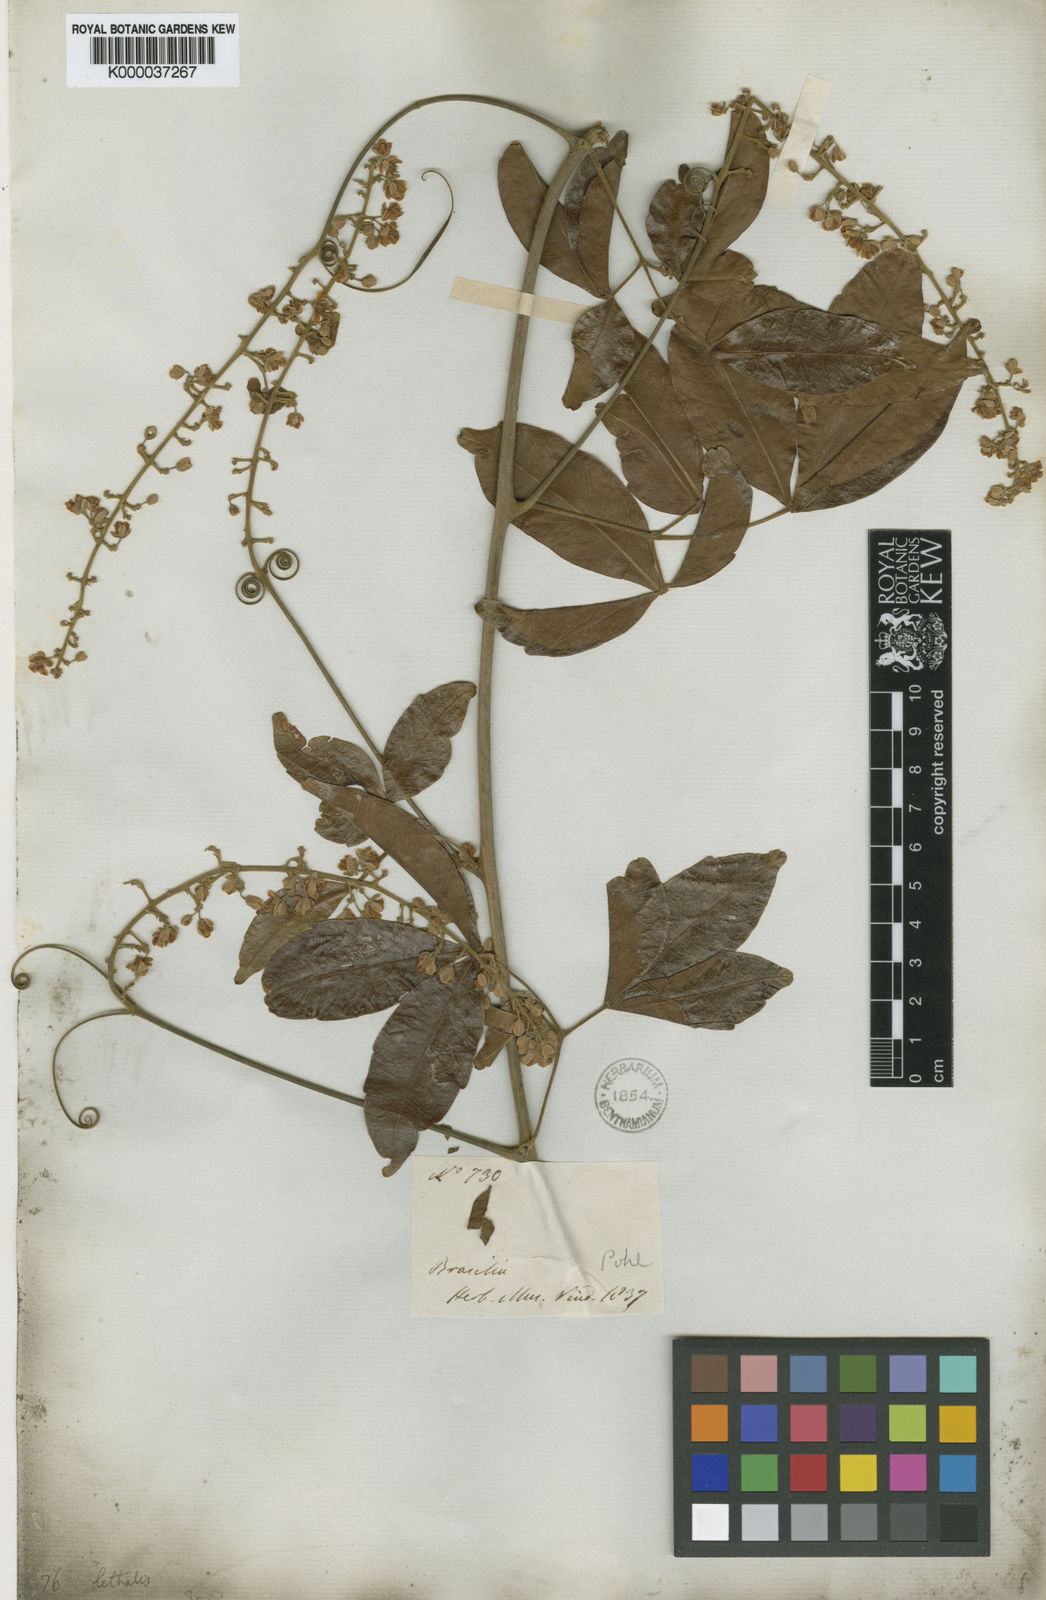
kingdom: Plantae
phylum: Tracheophyta
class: Magnoliopsida
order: Sapindales
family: Sapindaceae
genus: Serjania
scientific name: Serjania lethalis
